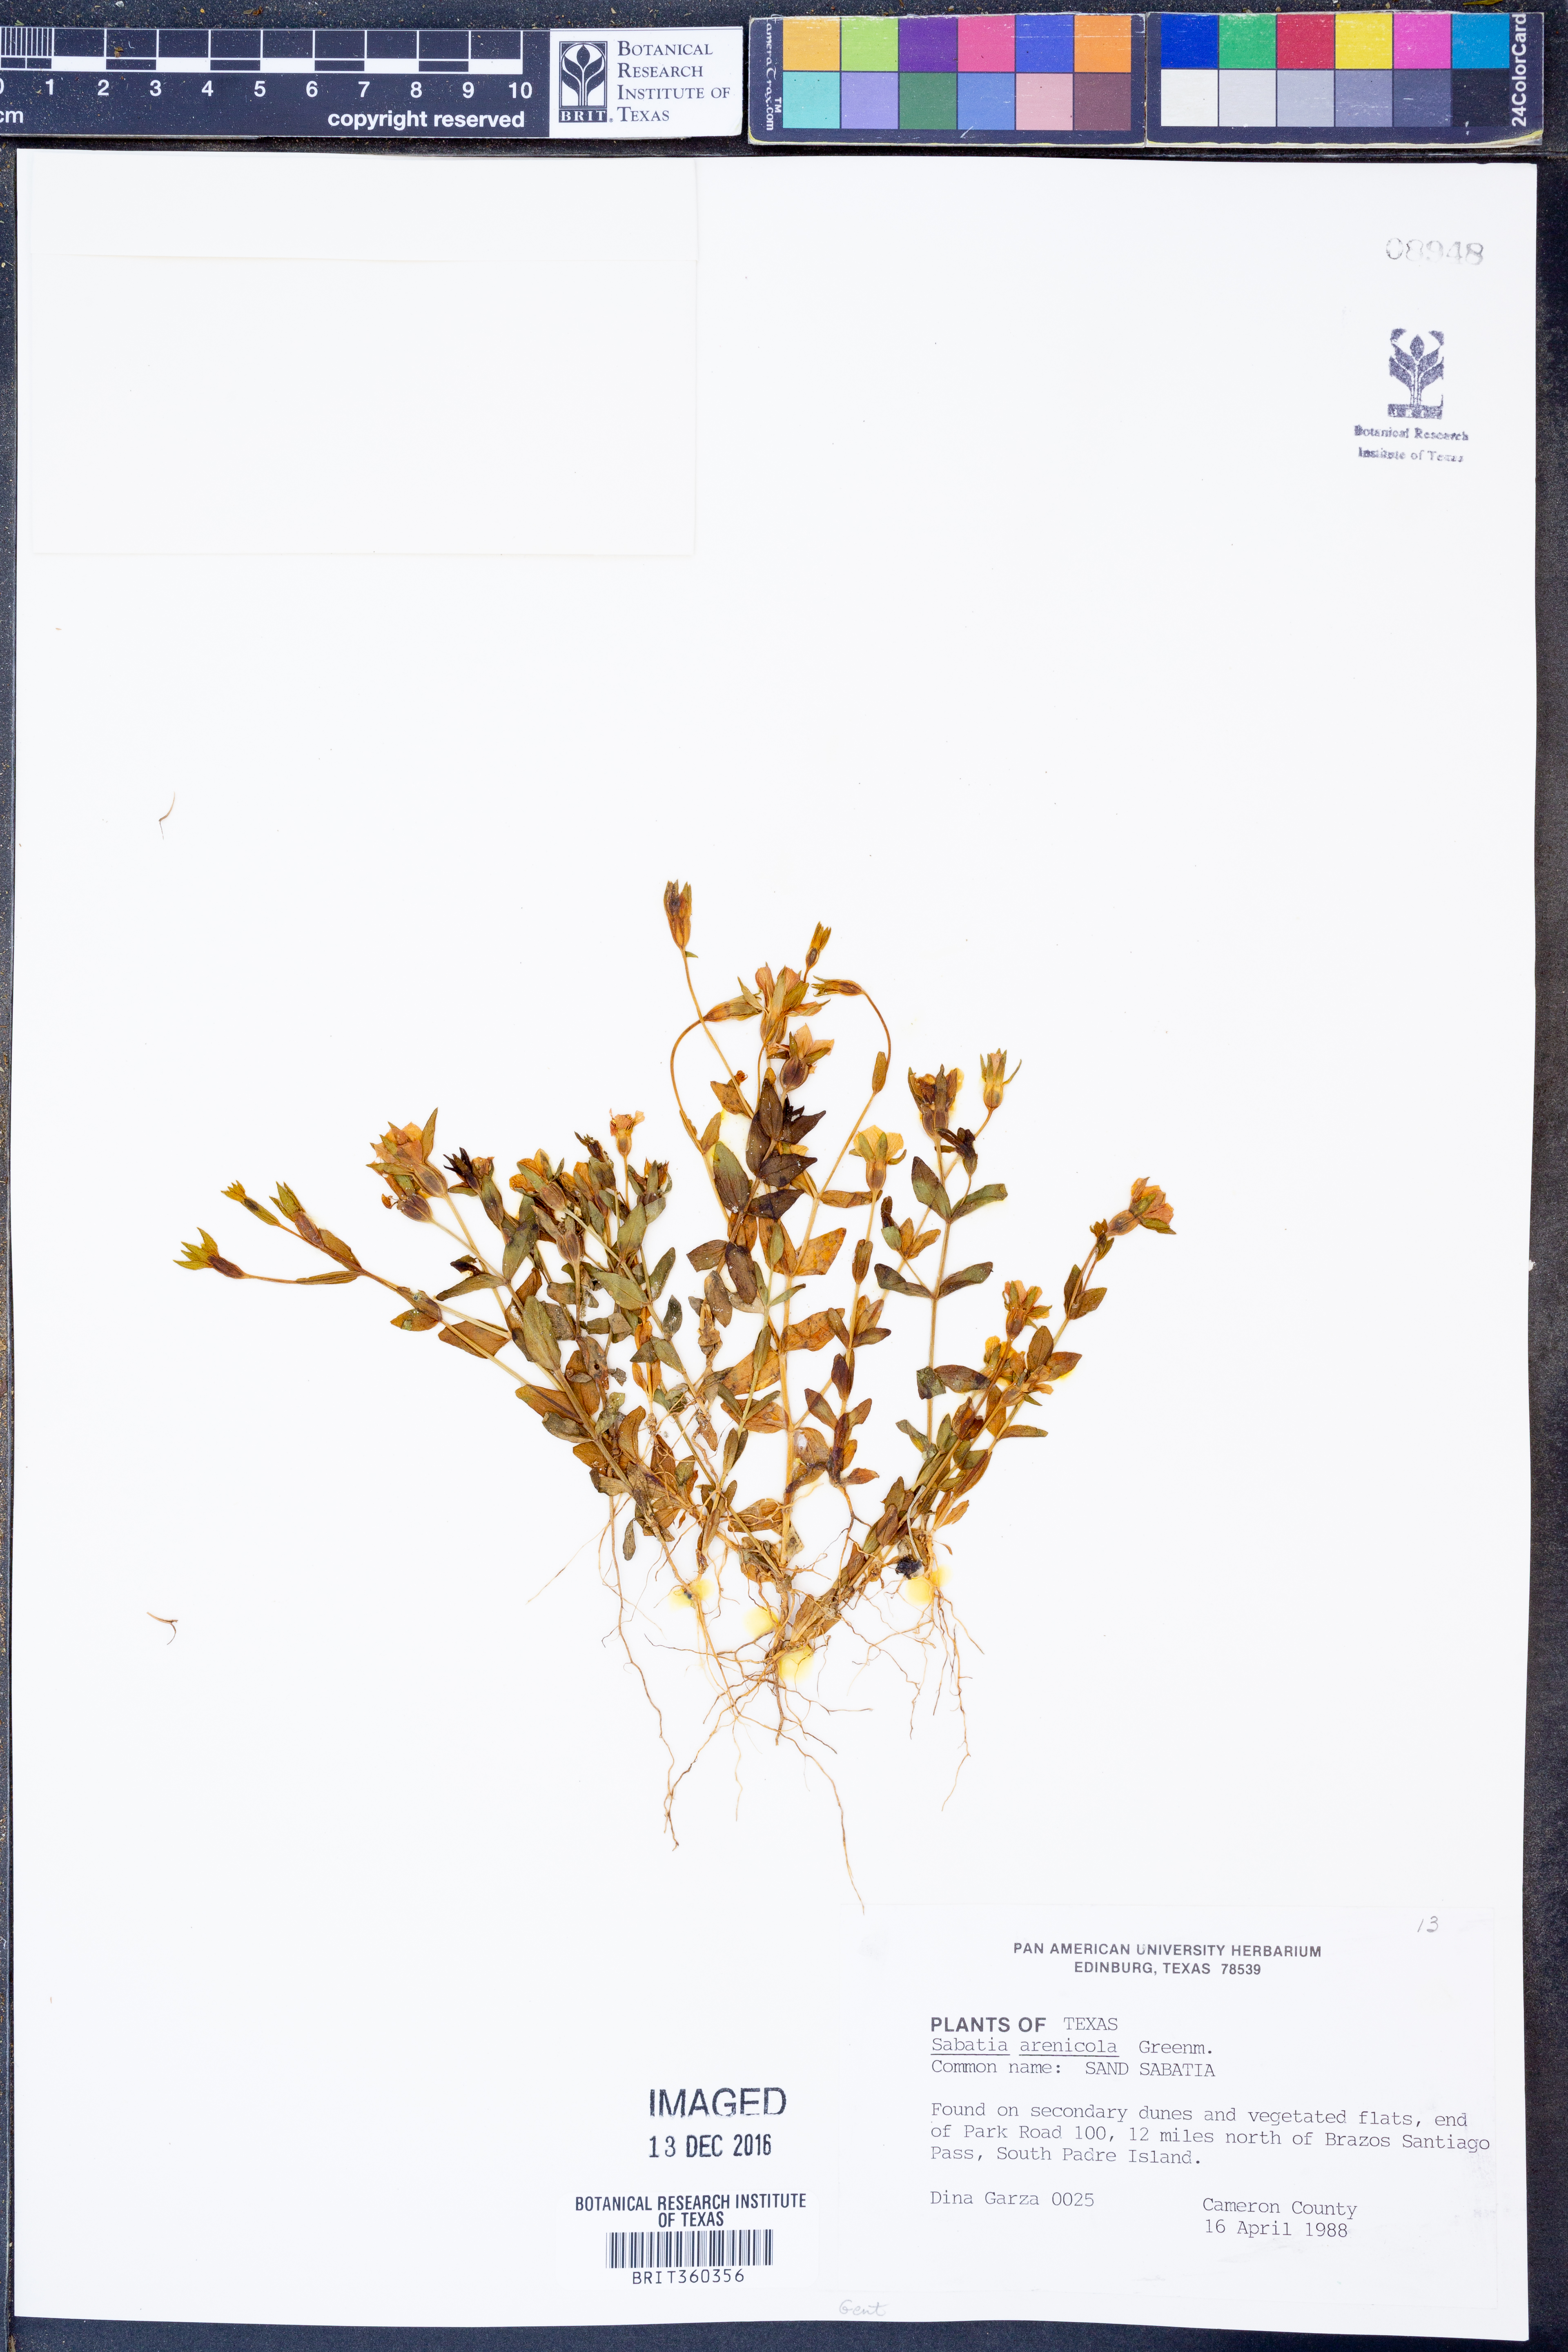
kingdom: Plantae
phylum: Tracheophyta
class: Magnoliopsida
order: Gentianales
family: Gentianaceae
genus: Sabatia
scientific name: Sabatia arenicola
